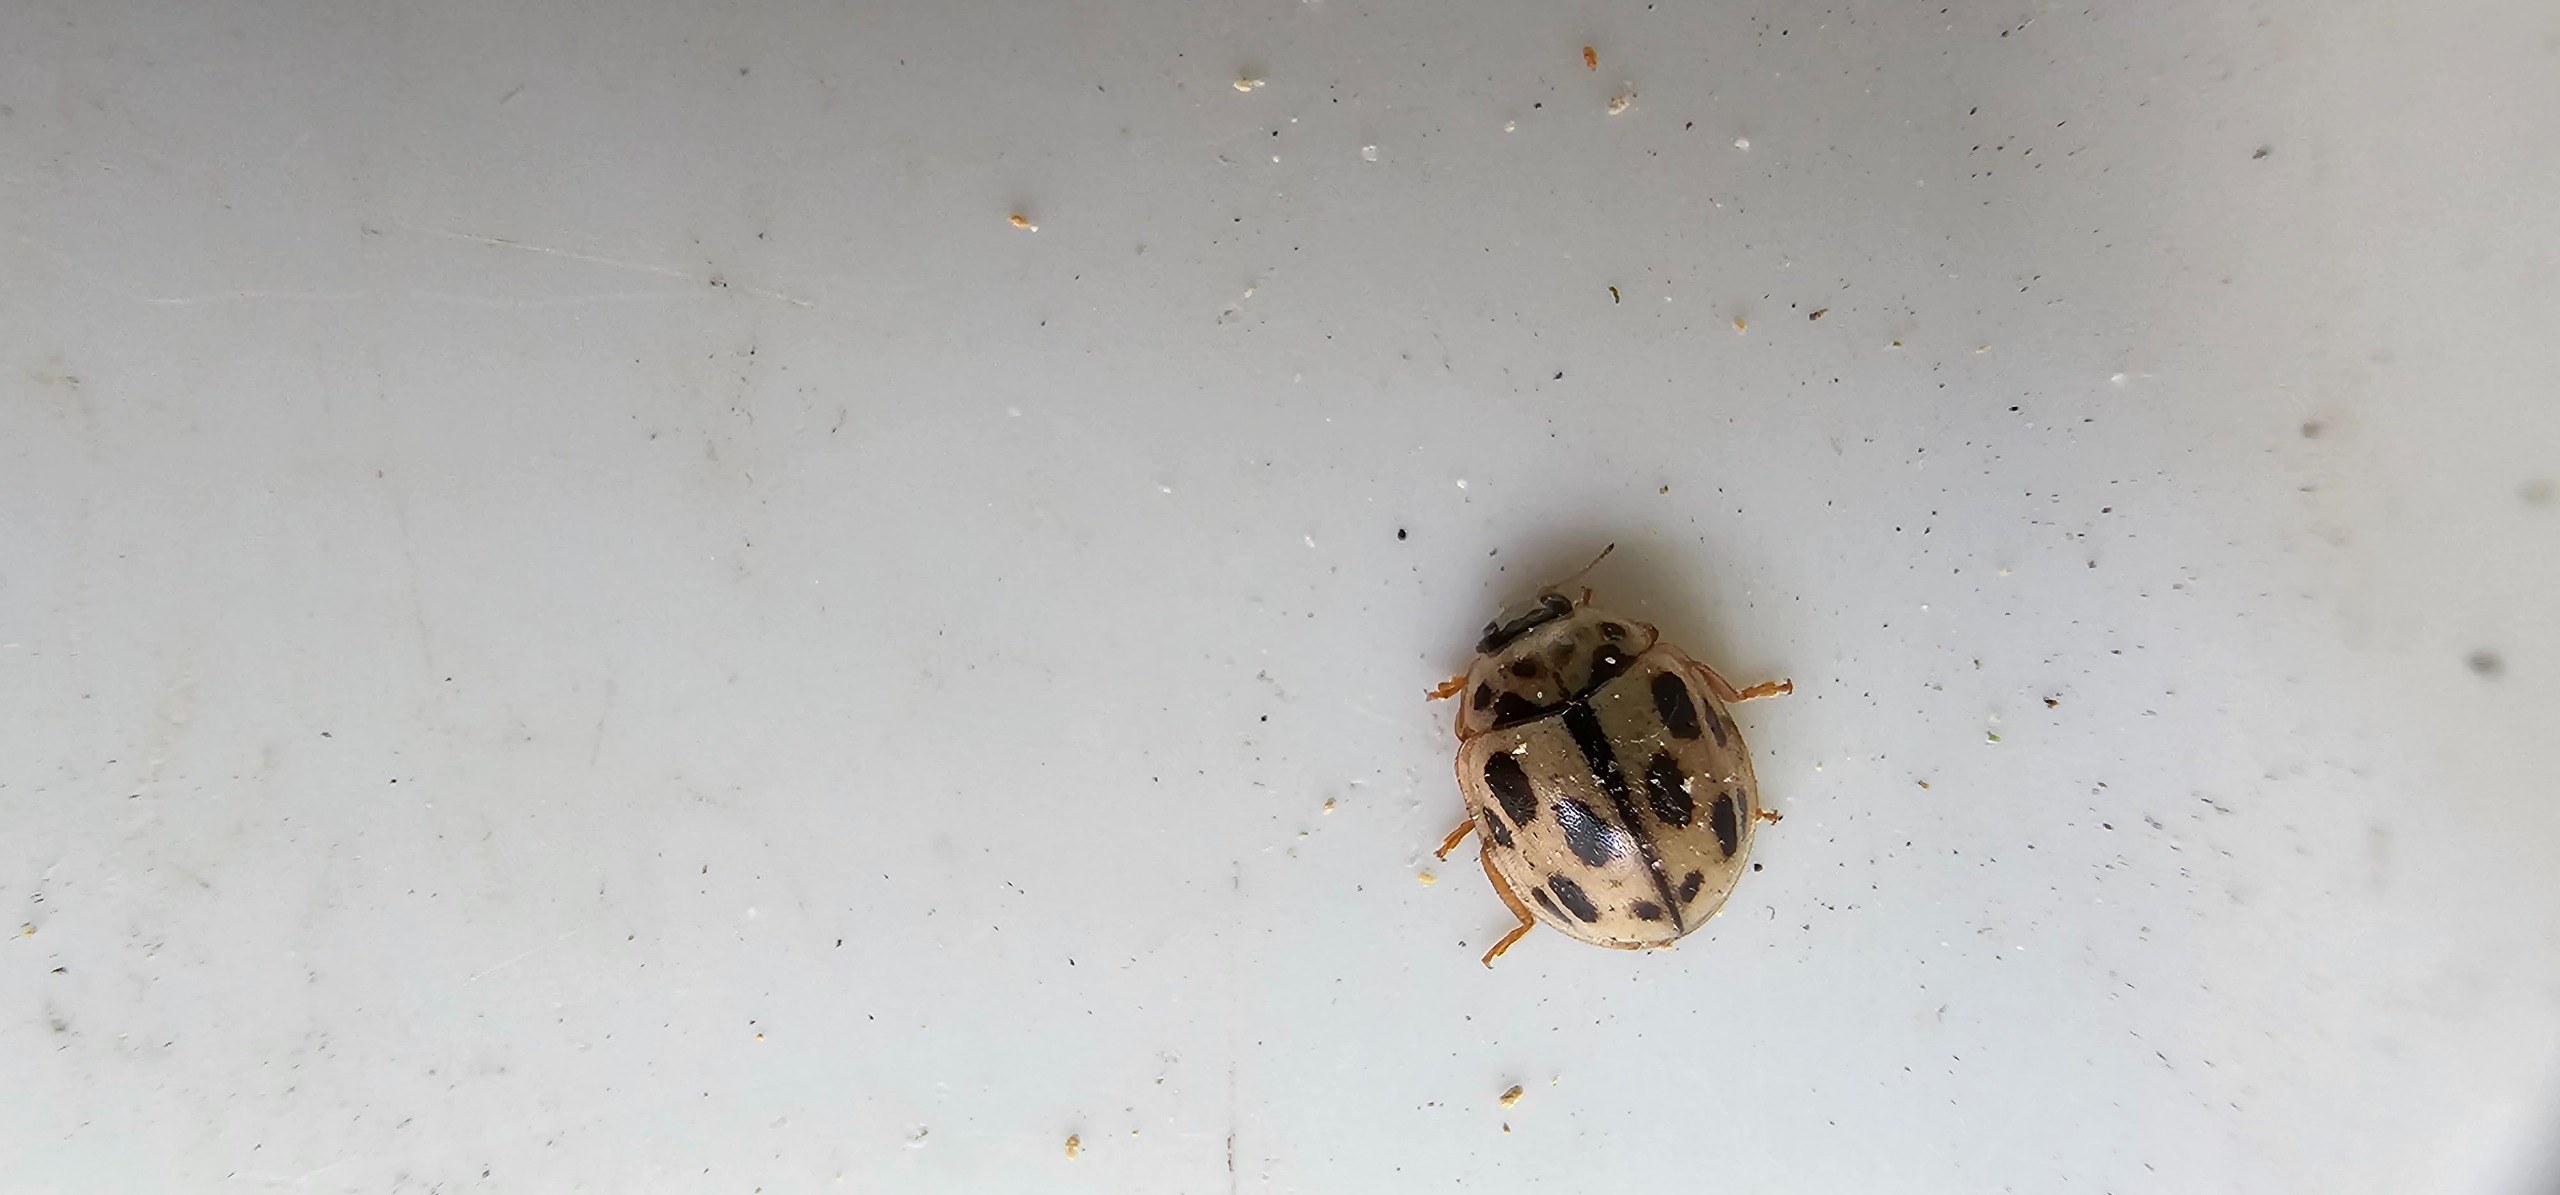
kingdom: Animalia
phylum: Arthropoda
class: Insecta
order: Coleoptera
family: Coccinellidae
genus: Propylaea
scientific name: Propylaea quatuordecimpunctata
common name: Skakbræt
